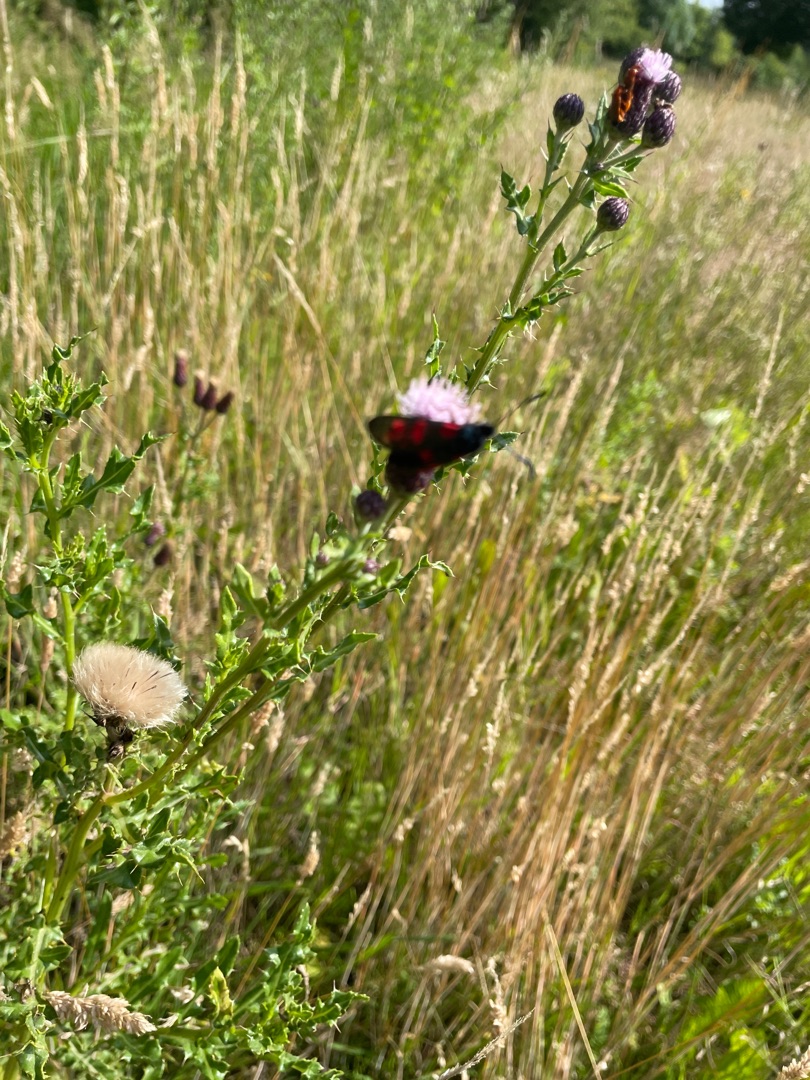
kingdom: Animalia
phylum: Arthropoda
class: Insecta
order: Lepidoptera
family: Zygaenidae
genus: Zygaena
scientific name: Zygaena filipendulae
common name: Seksplettet køllesværmer
